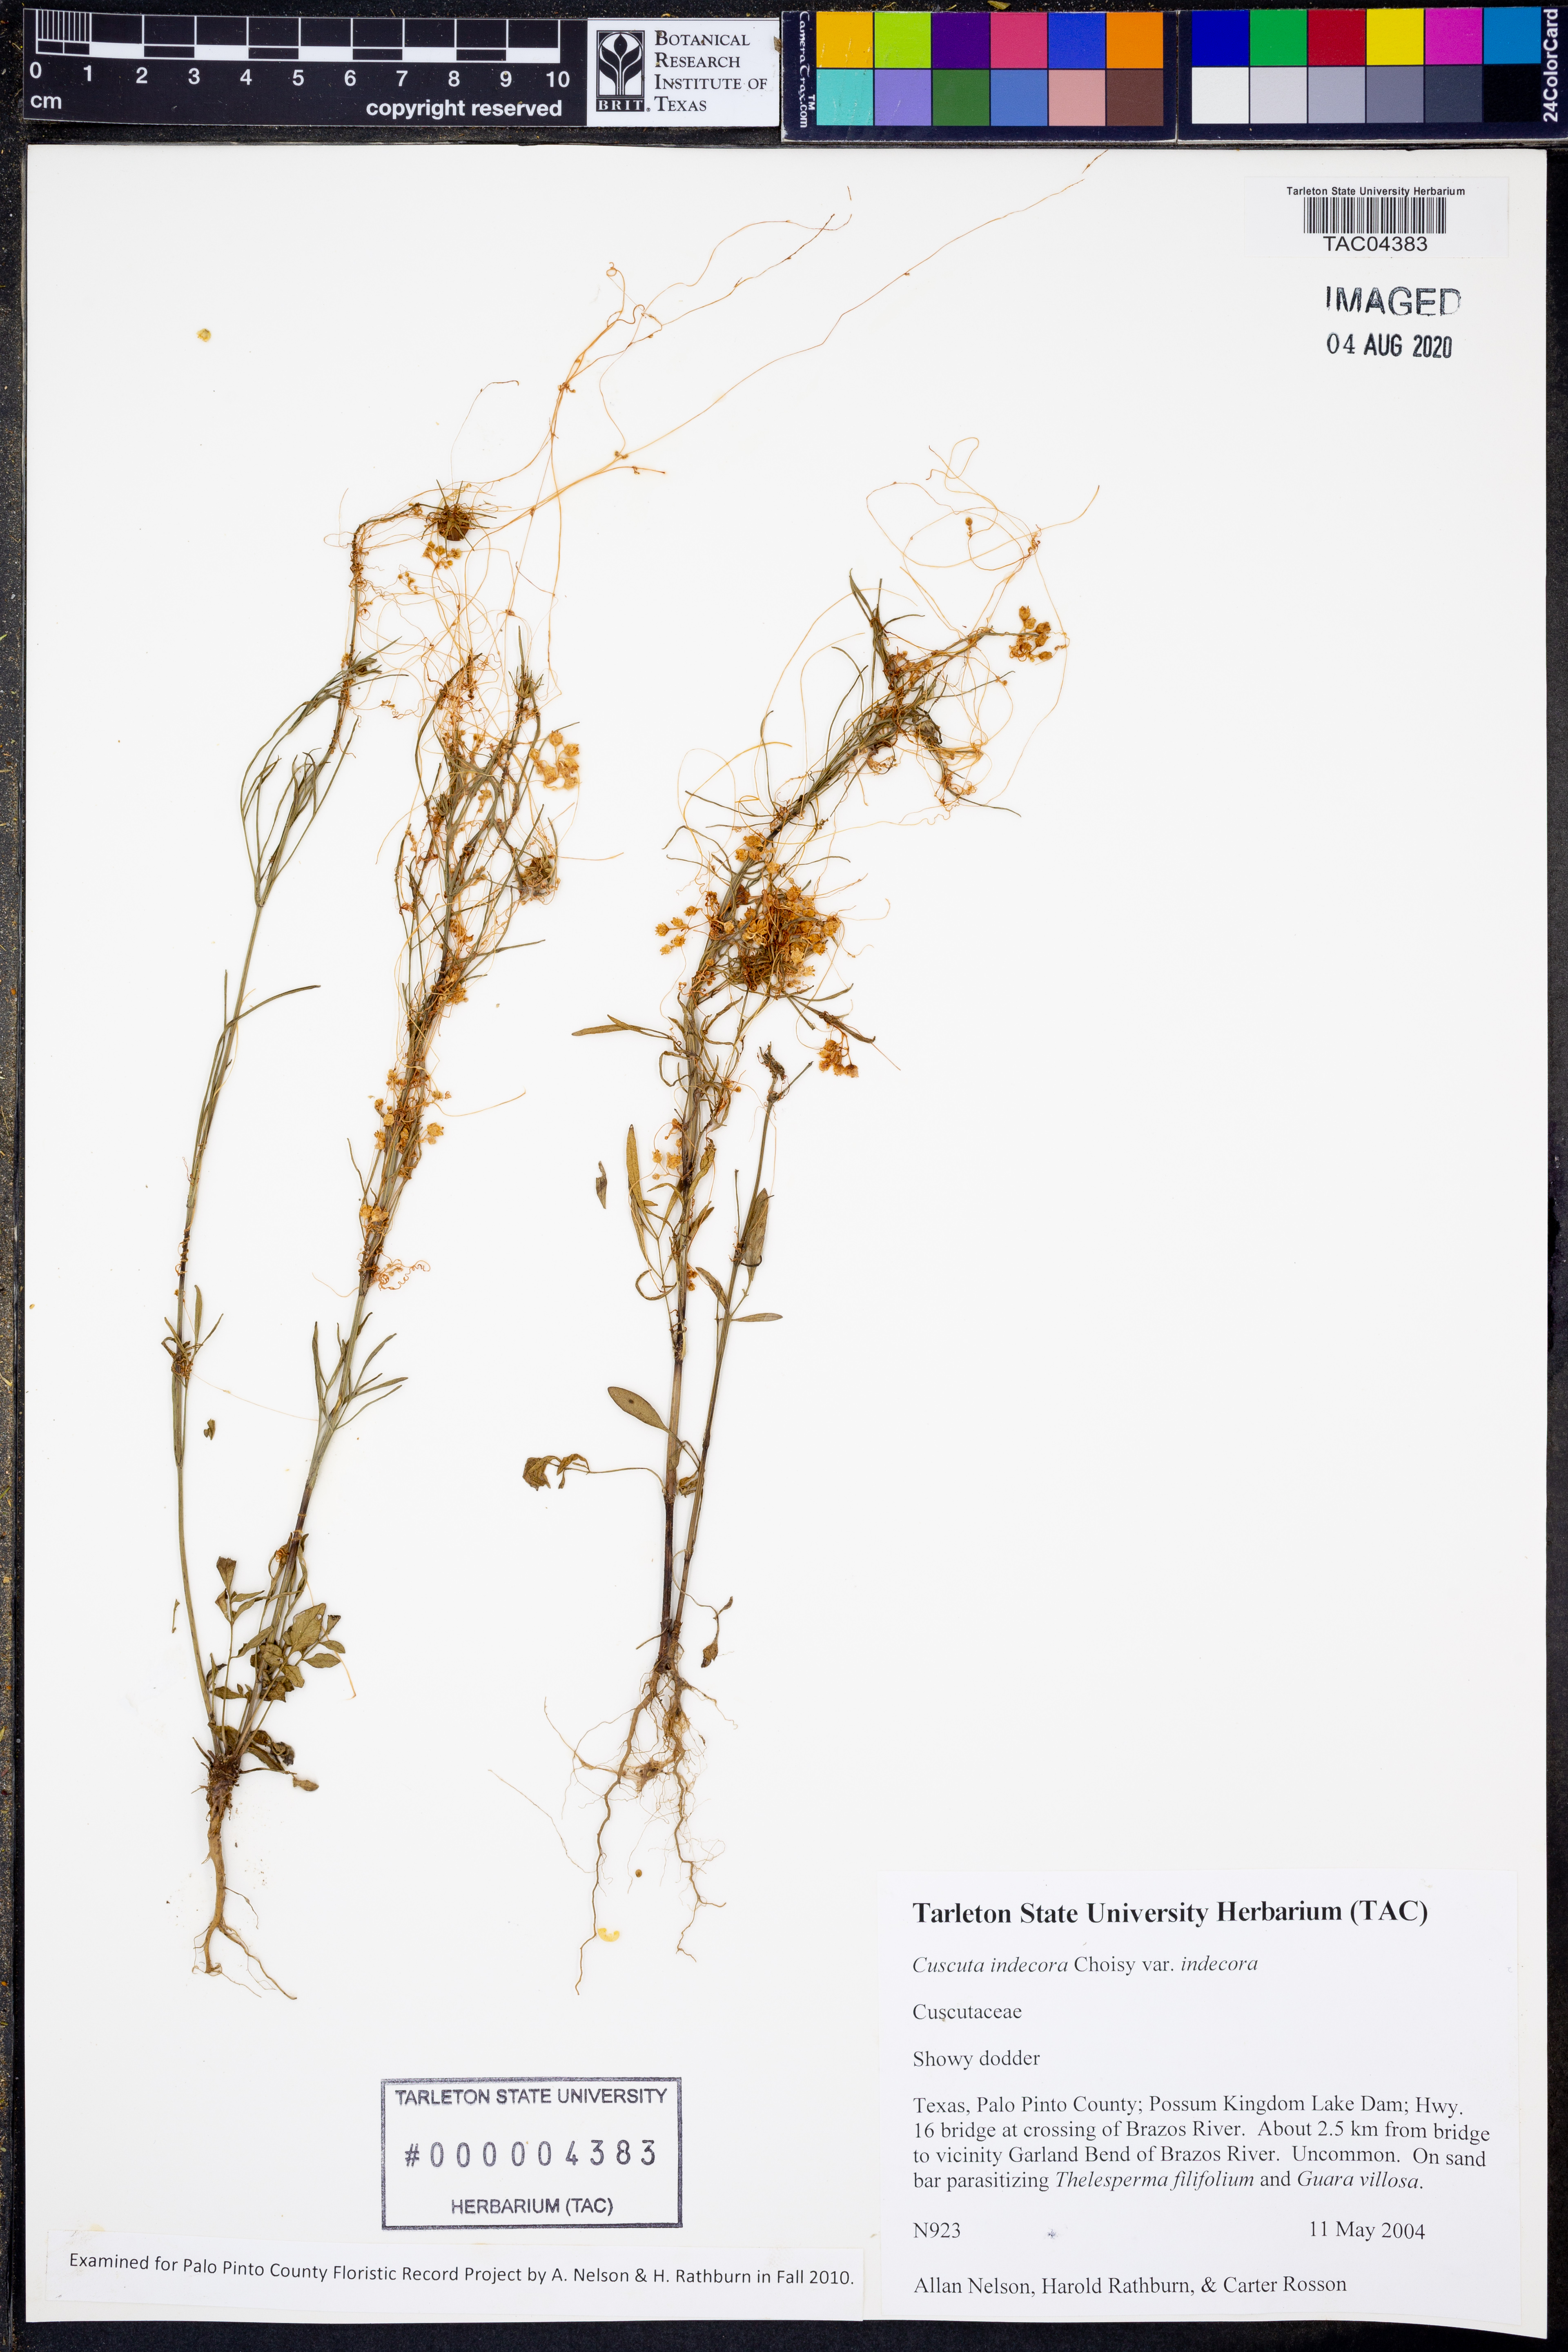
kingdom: Plantae
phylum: Tracheophyta
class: Magnoliopsida
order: Solanales
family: Convolvulaceae
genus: Cuscuta
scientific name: Cuscuta indecora
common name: Large-seed dodder
